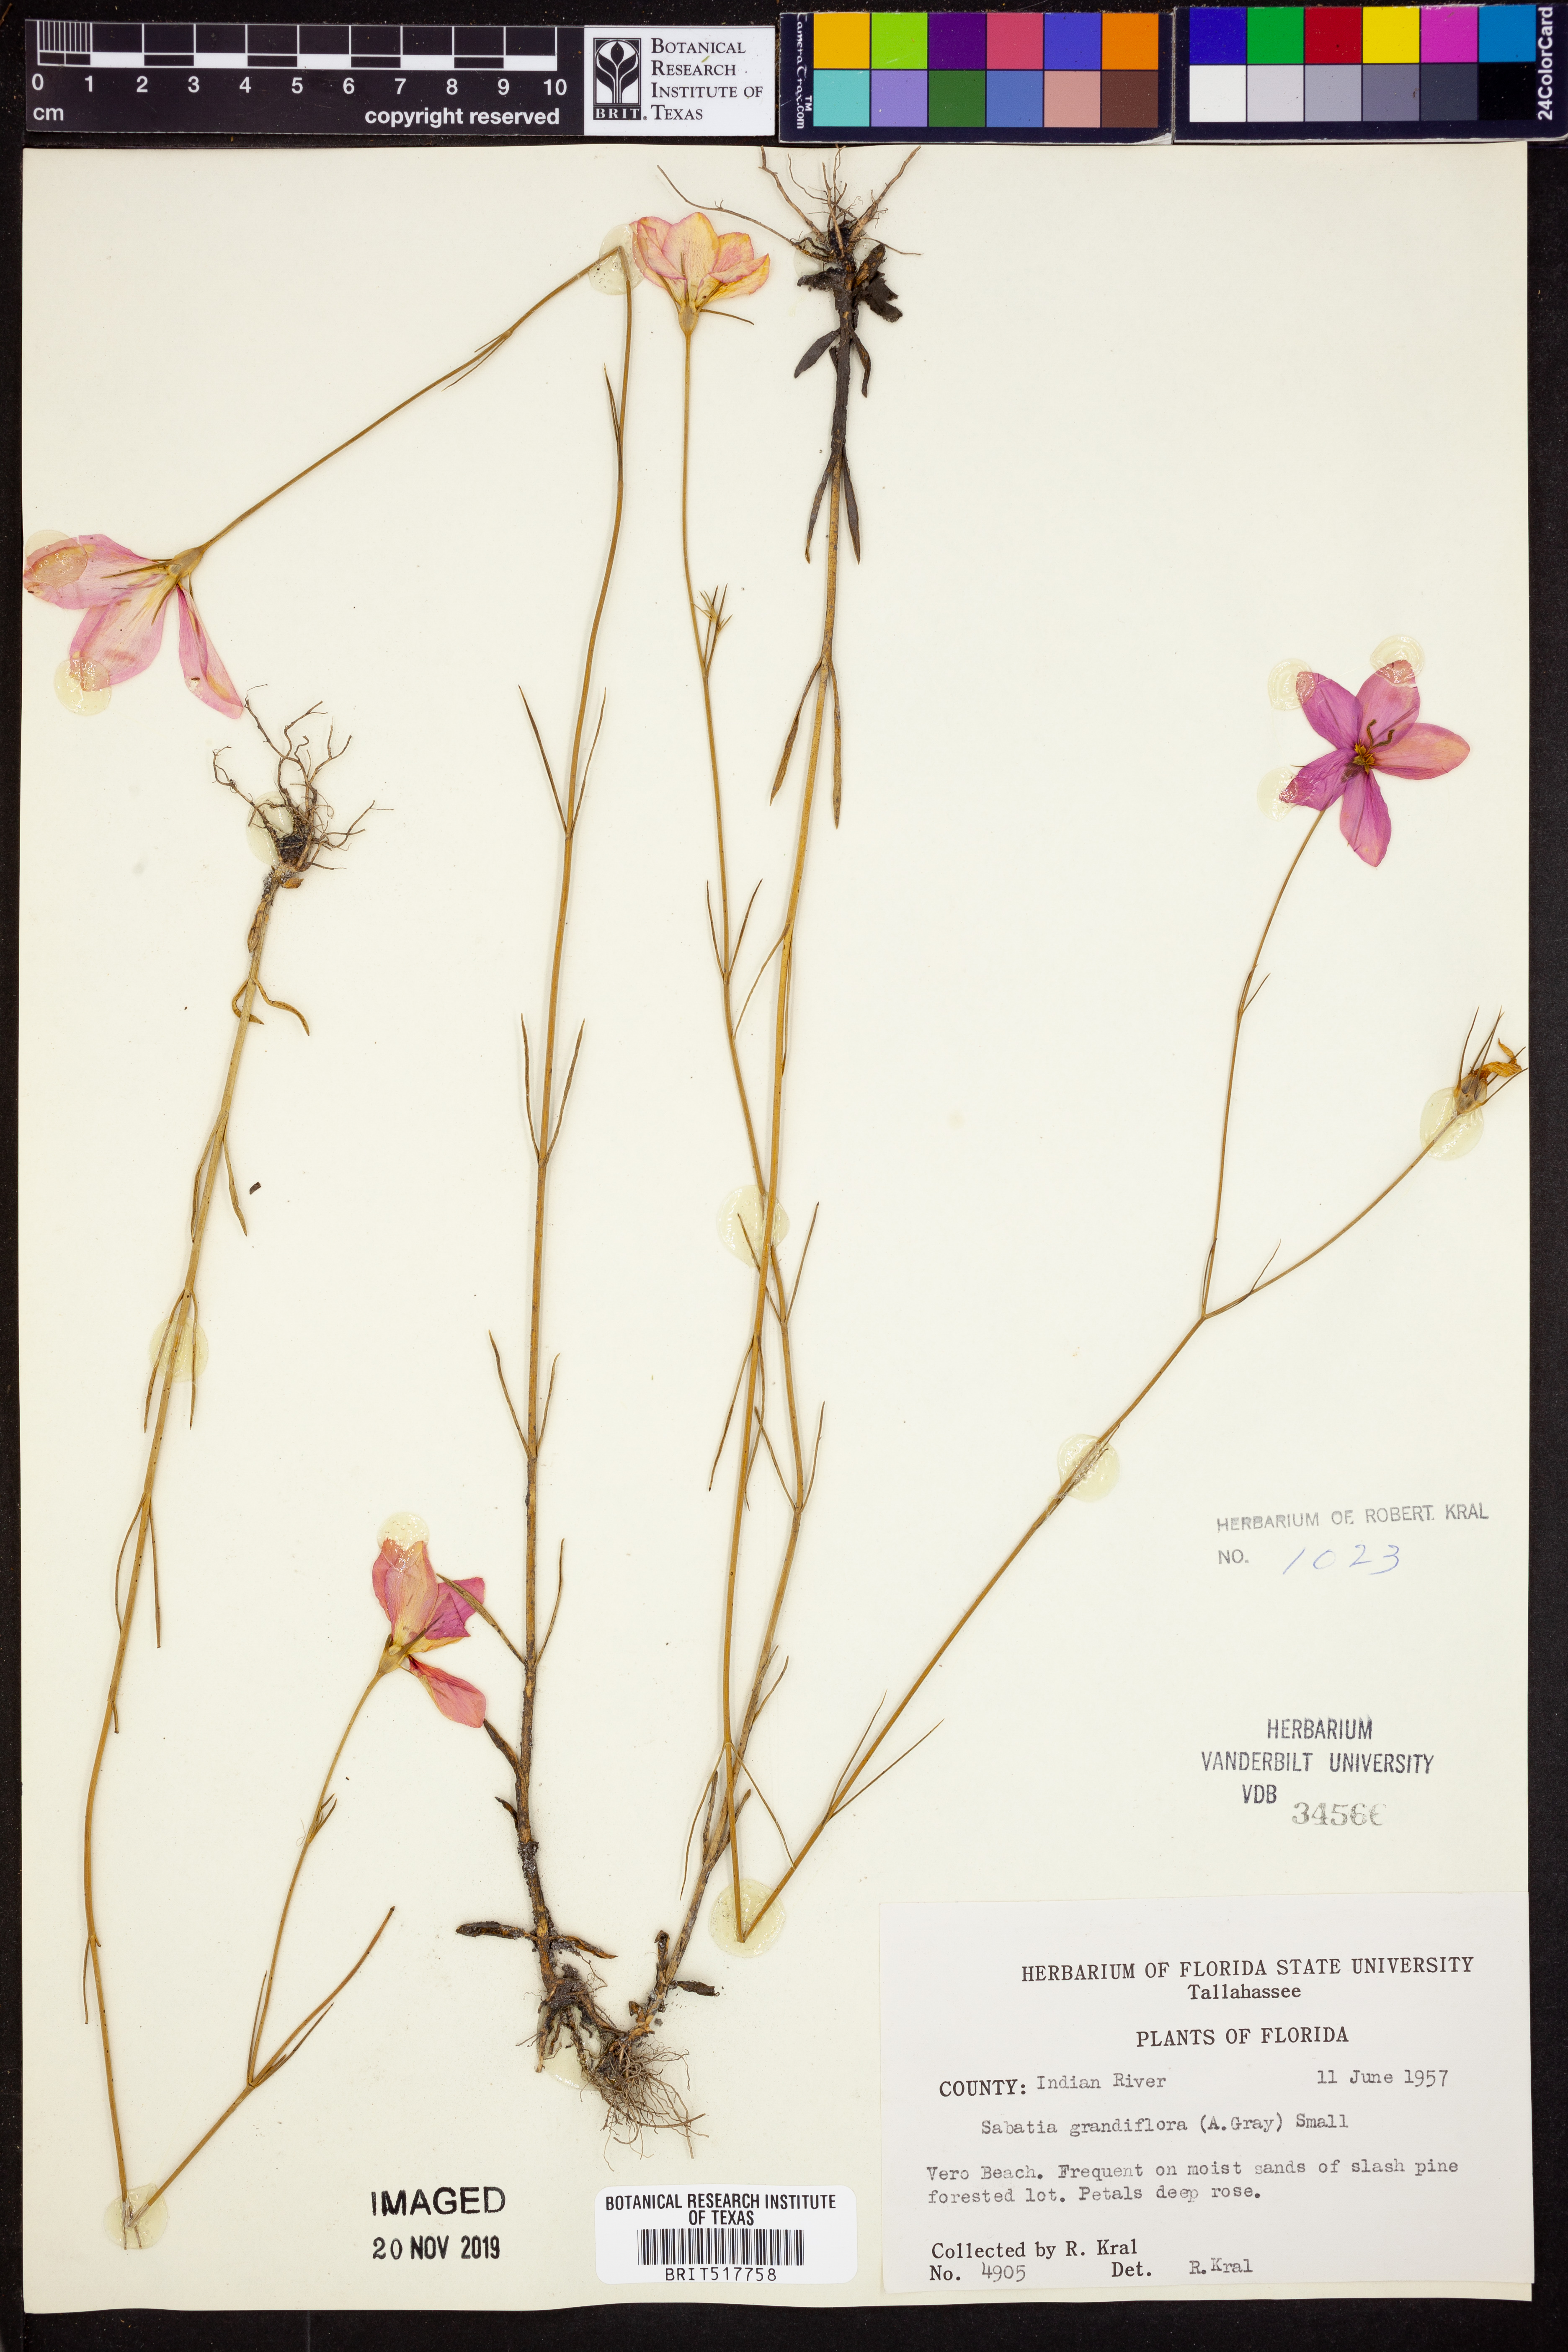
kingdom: Plantae
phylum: Tracheophyta
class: Magnoliopsida
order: Gentianales
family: Gentianaceae
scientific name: Gentianaceae
